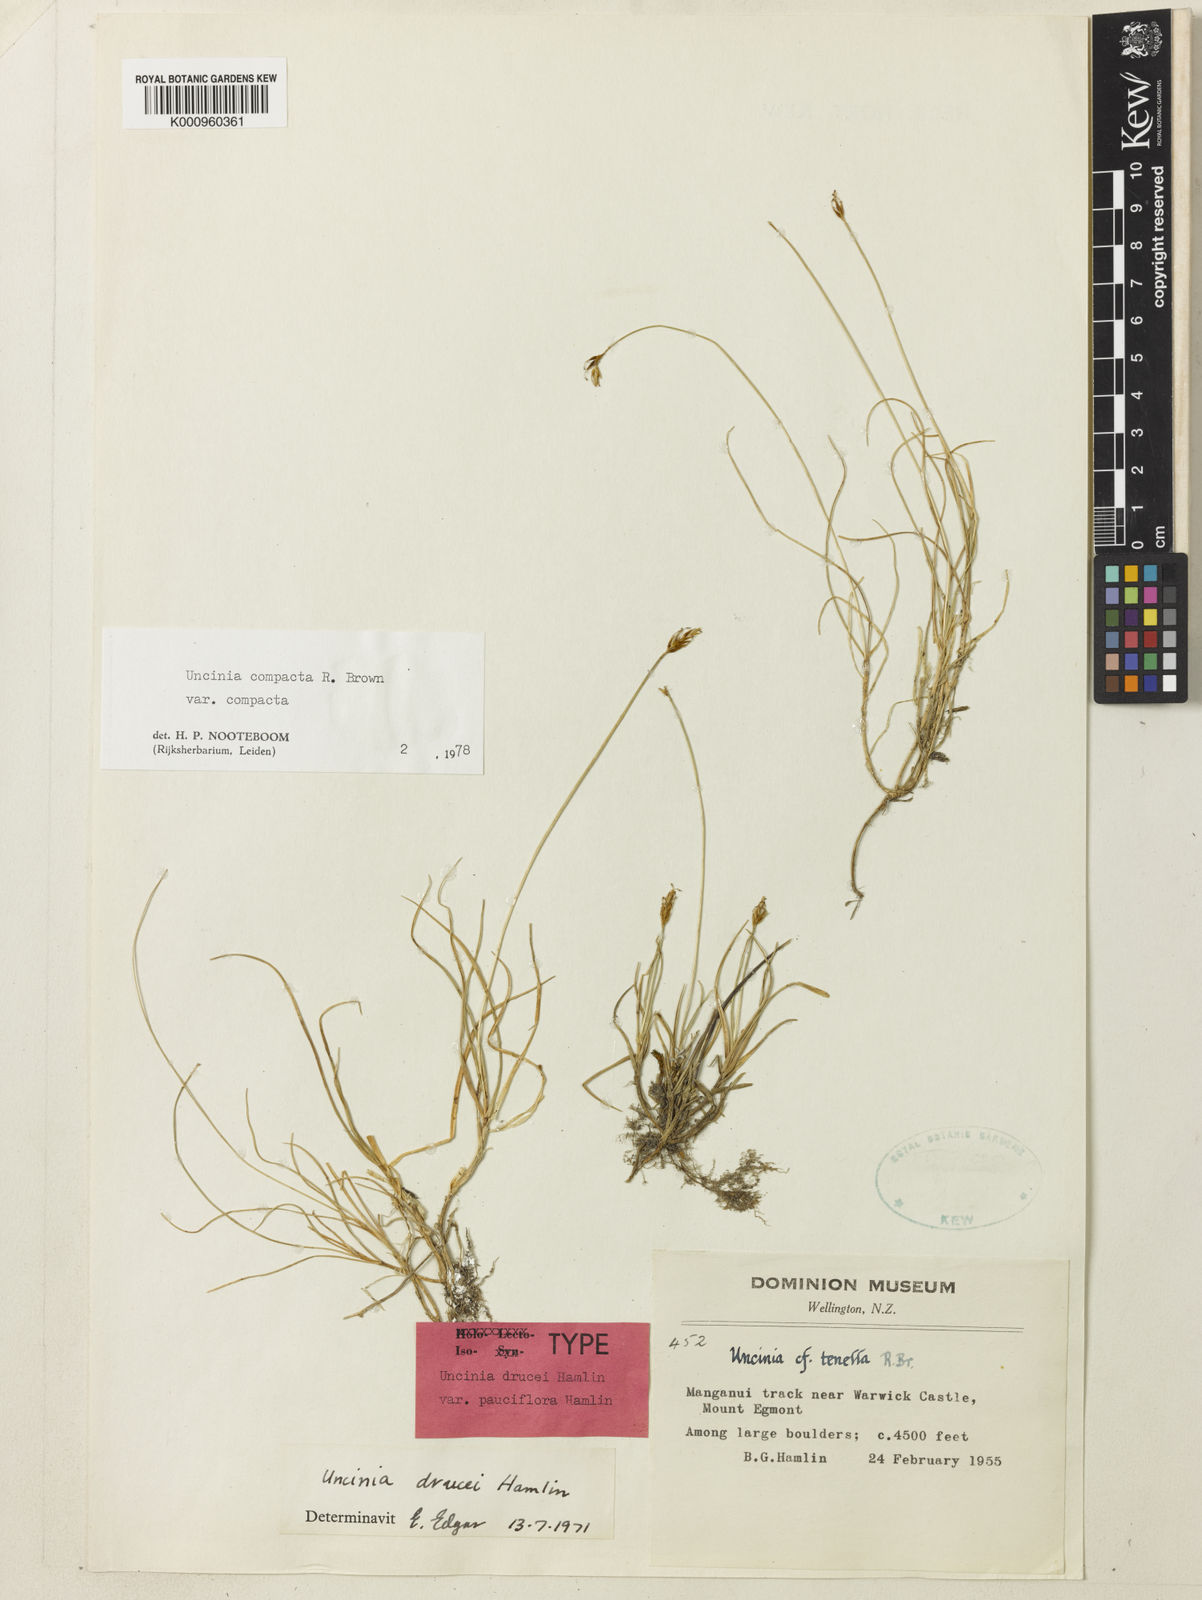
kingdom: Plantae
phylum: Tracheophyta
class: Liliopsida
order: Poales
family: Cyperaceae
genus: Carex
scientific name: Carex drucei
